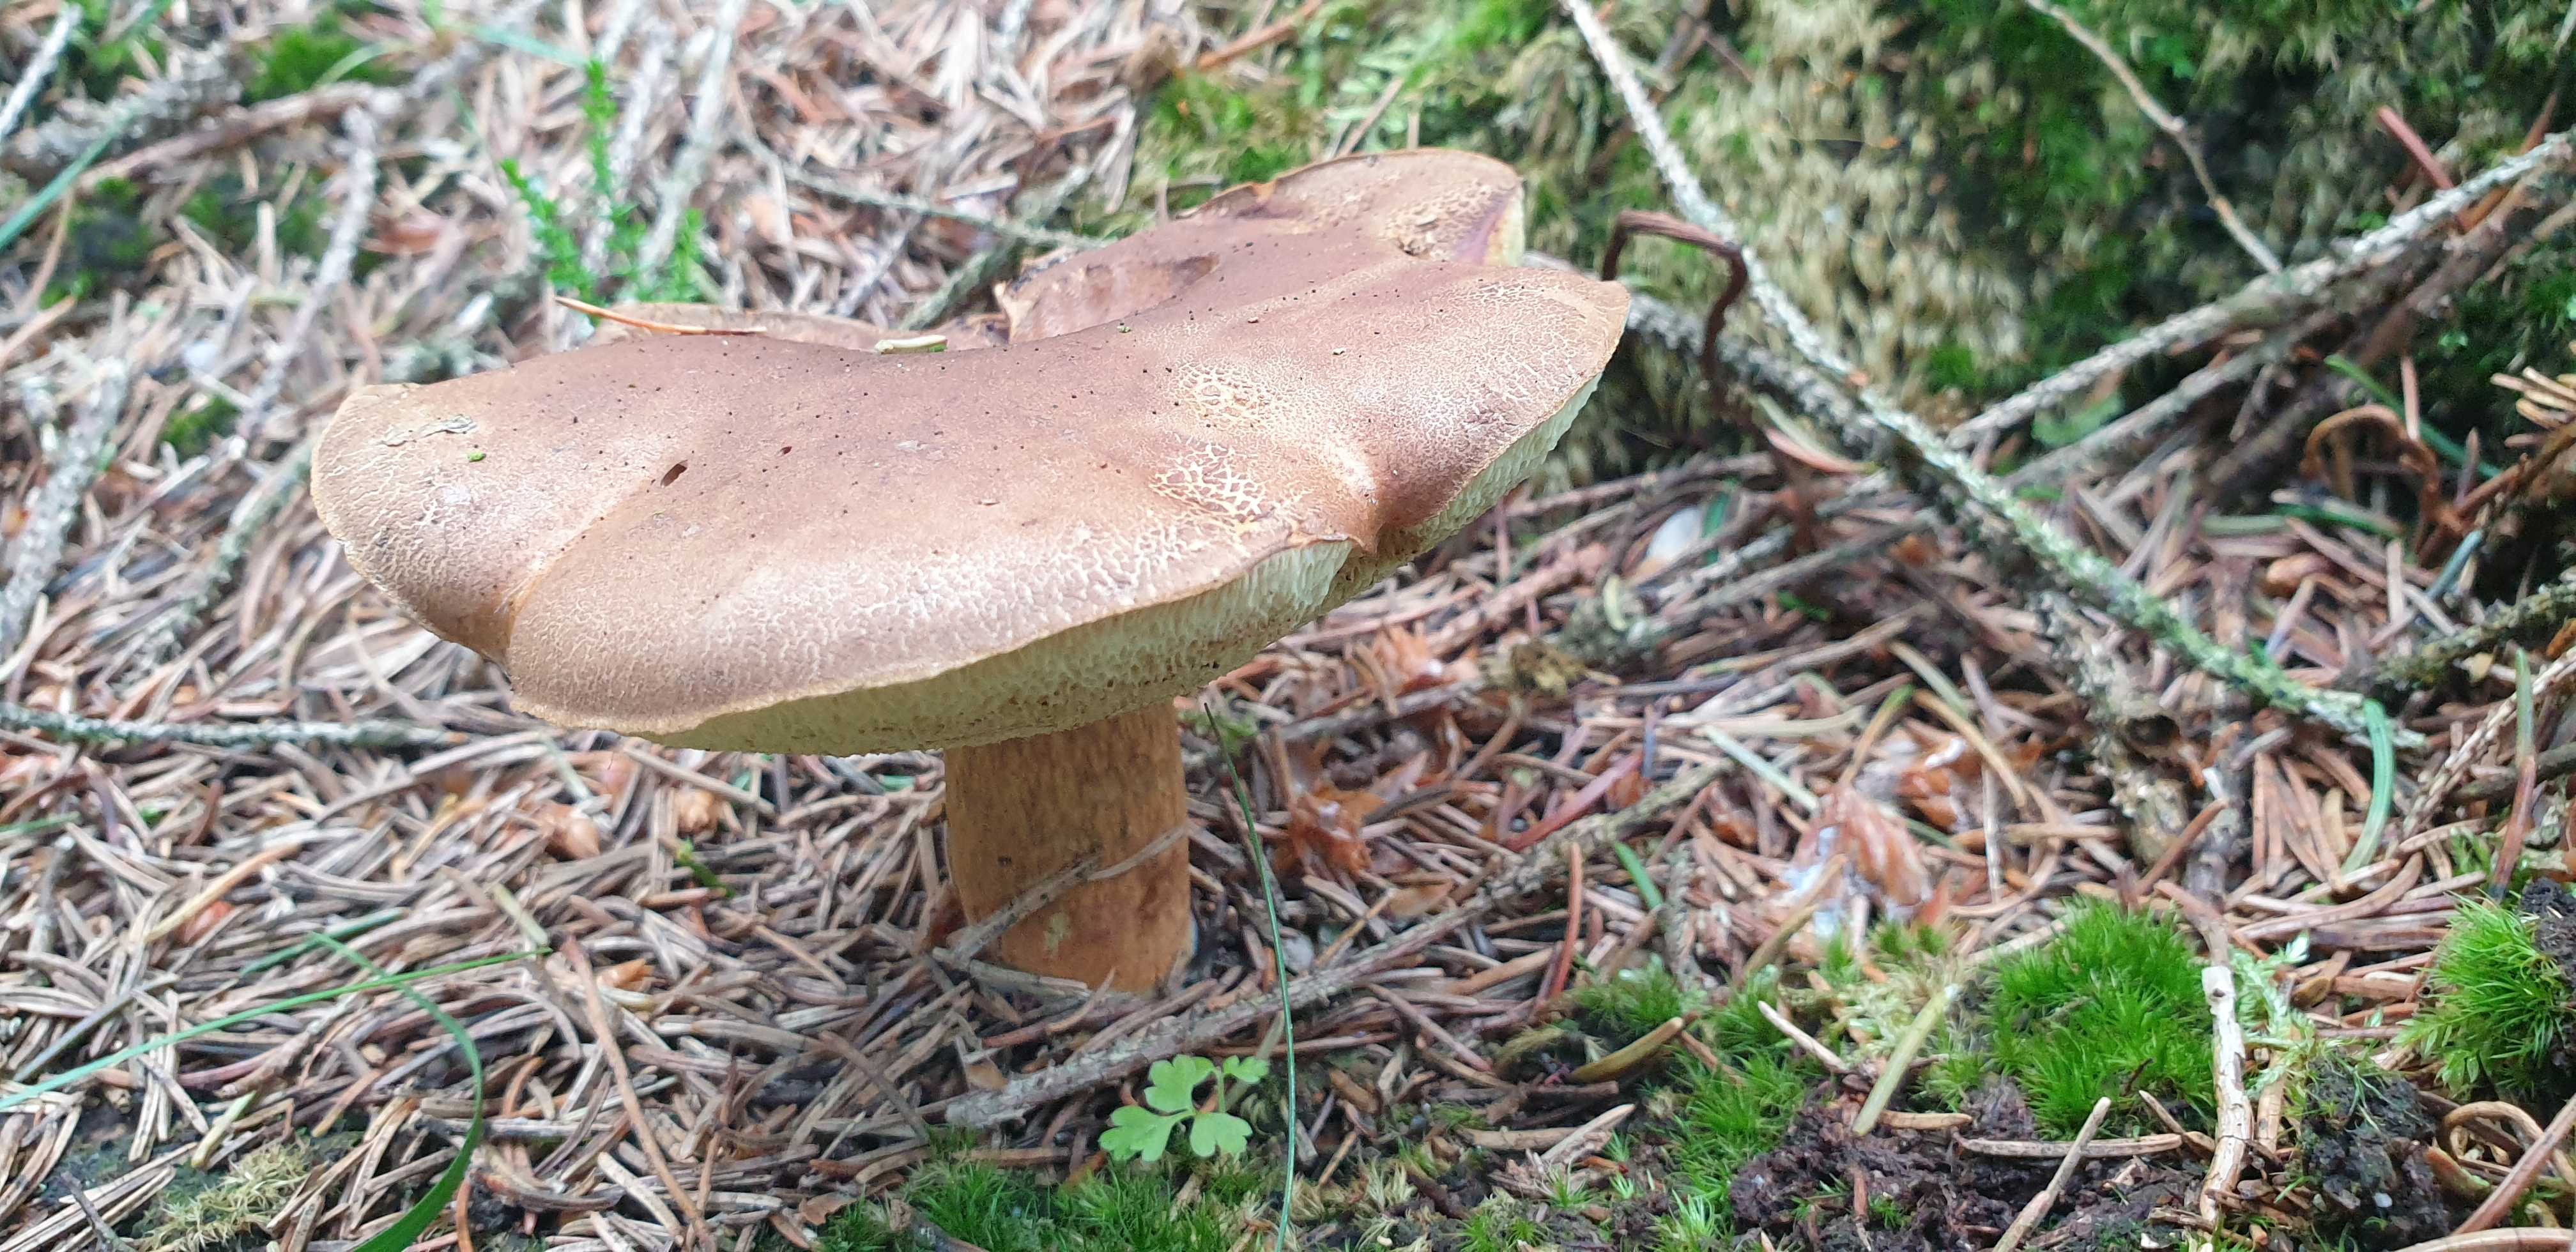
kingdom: Fungi
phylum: Basidiomycota
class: Agaricomycetes
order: Boletales
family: Boletaceae
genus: Imleria
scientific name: Imleria badia
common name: brunstokket rørhat
